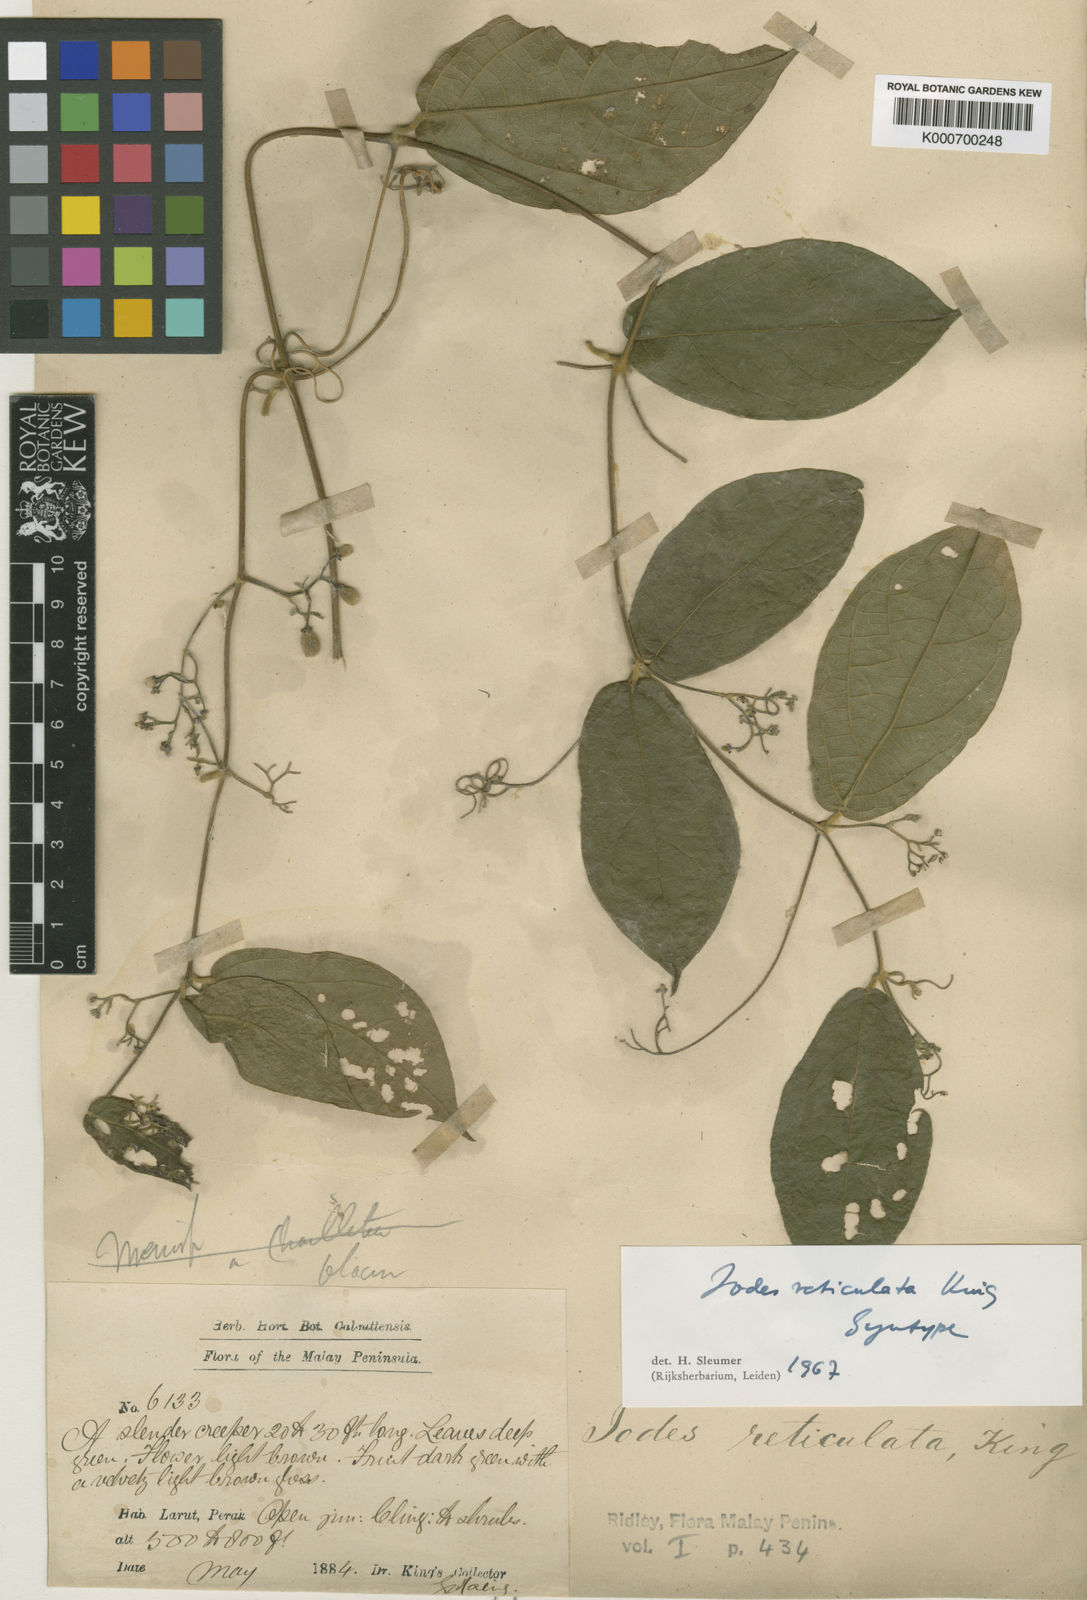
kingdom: Plantae
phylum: Tracheophyta
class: Magnoliopsida
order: Icacinales
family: Icacinaceae
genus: Iodes
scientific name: Iodes reticulata
